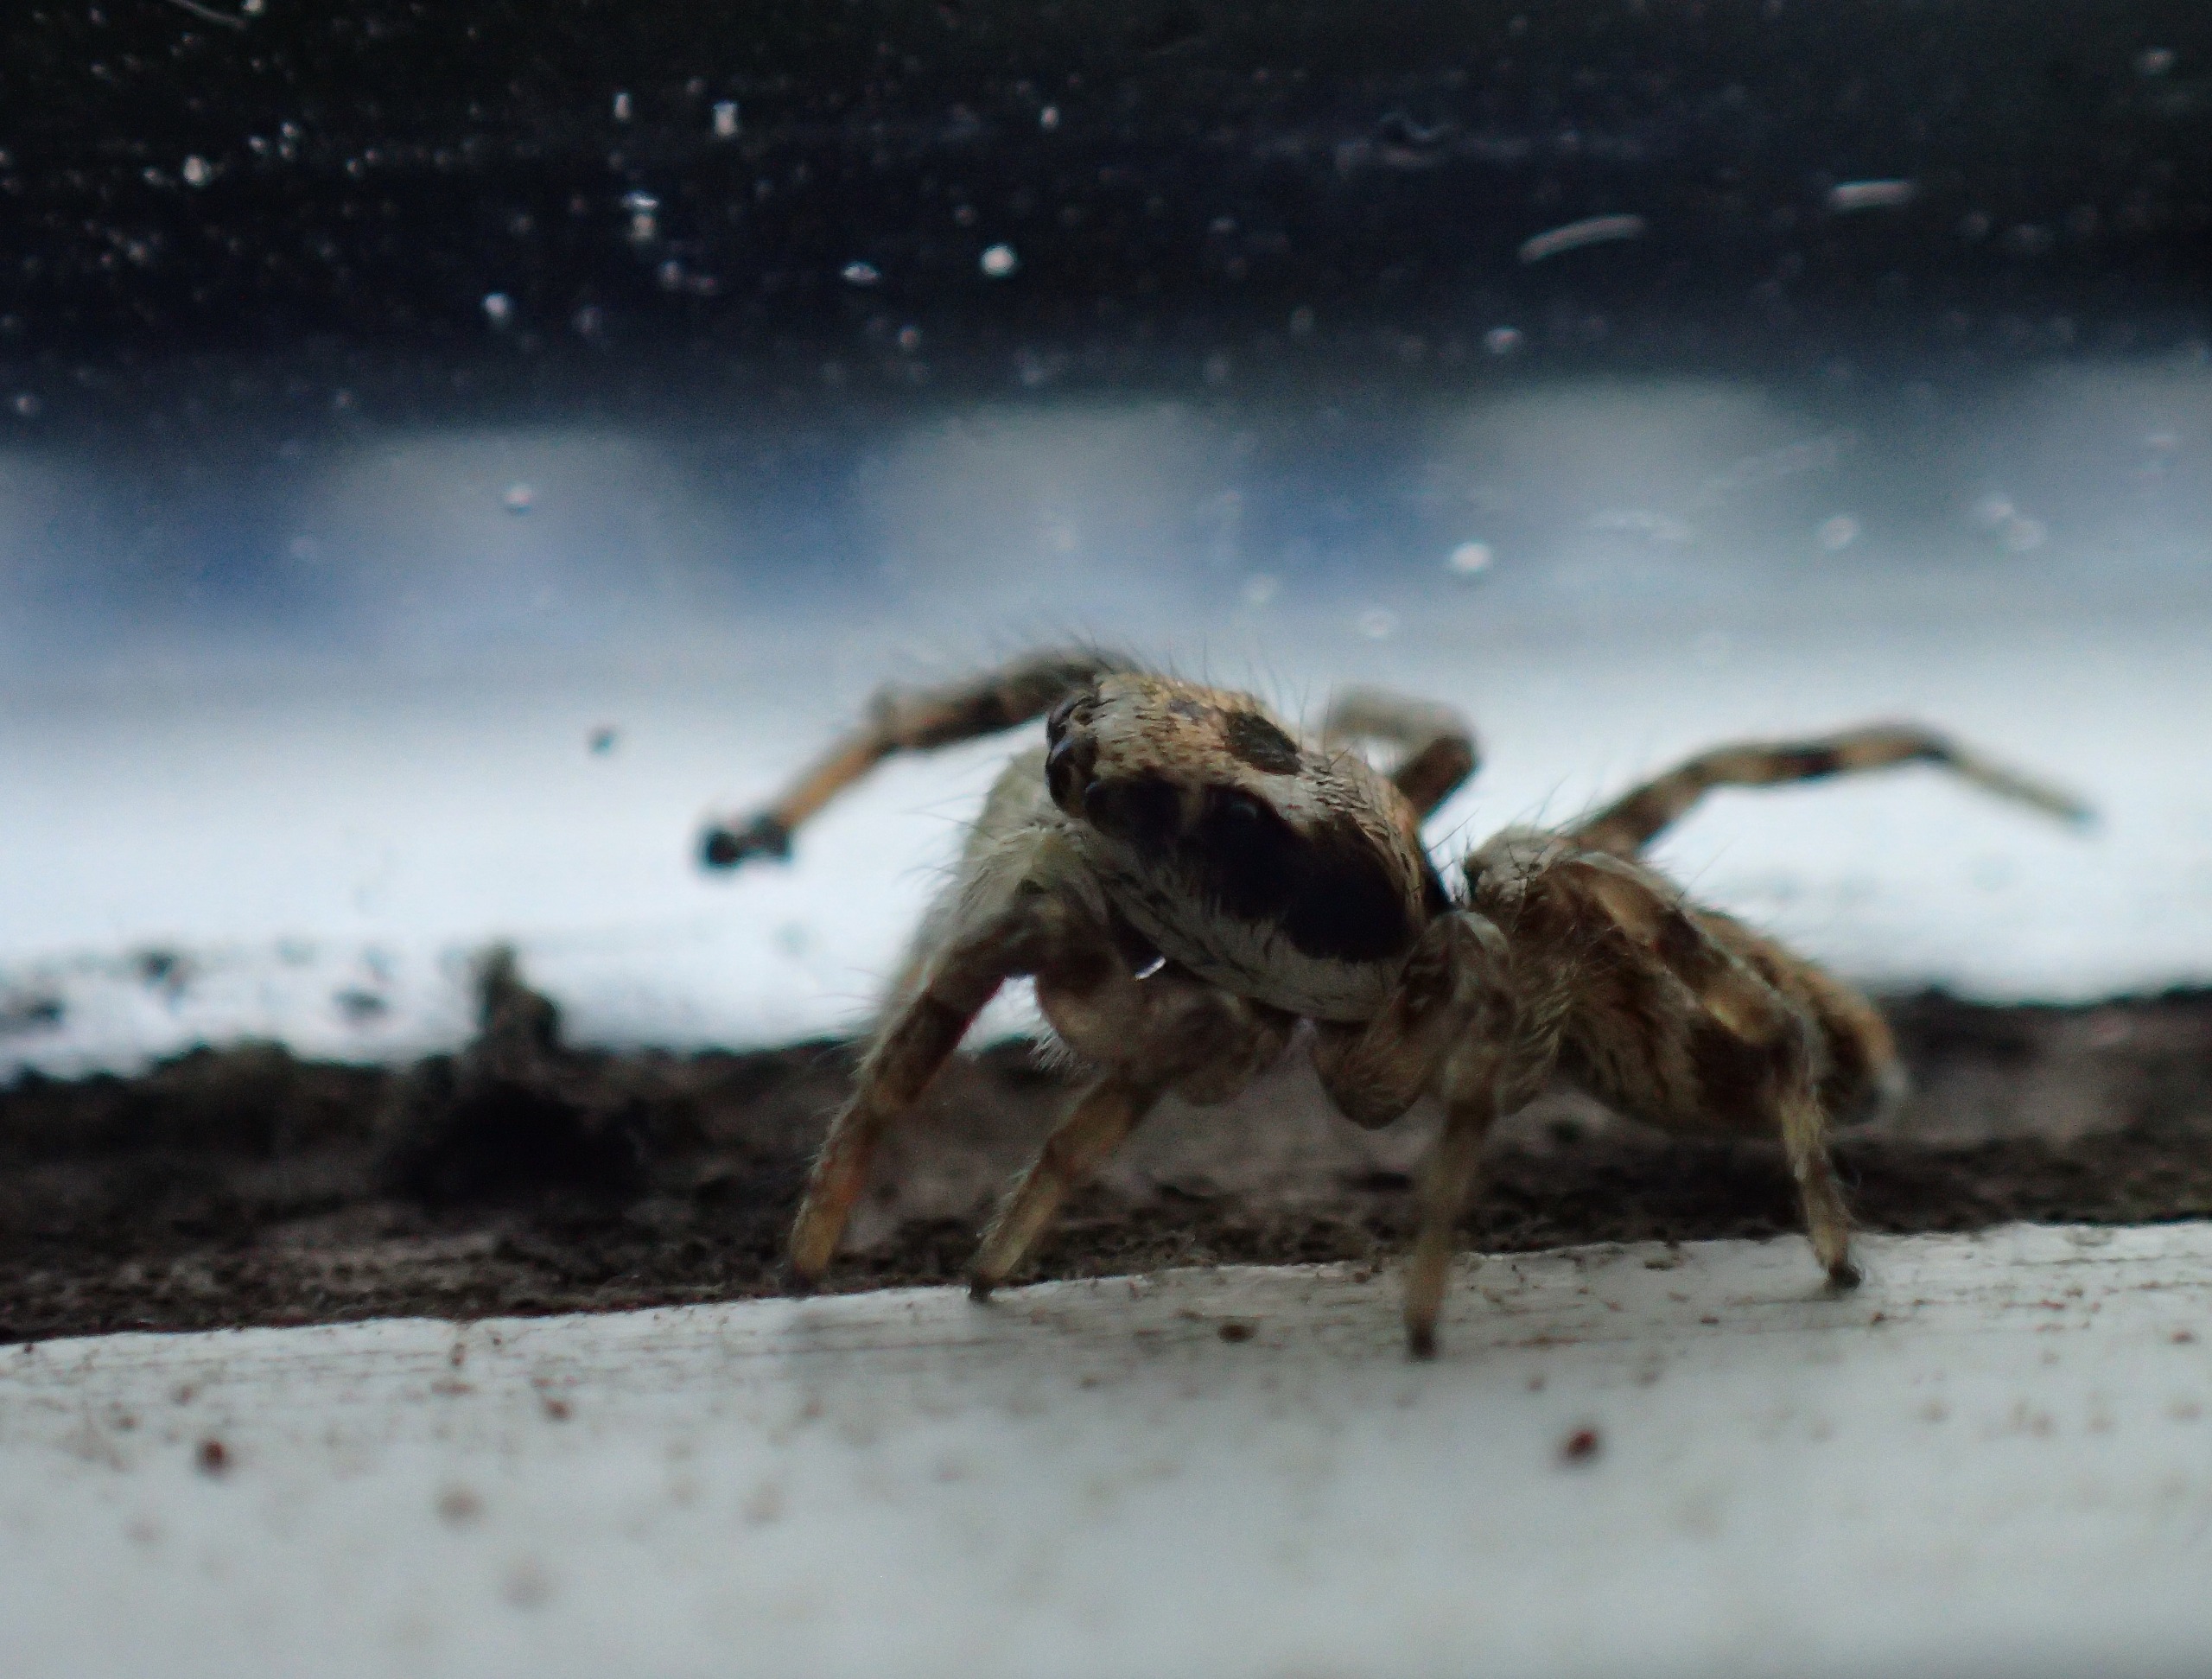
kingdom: Animalia
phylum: Arthropoda
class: Arachnida
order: Araneae
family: Salticidae
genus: Salticus
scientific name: Salticus scenicus
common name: Almindelig zebraedderkop
